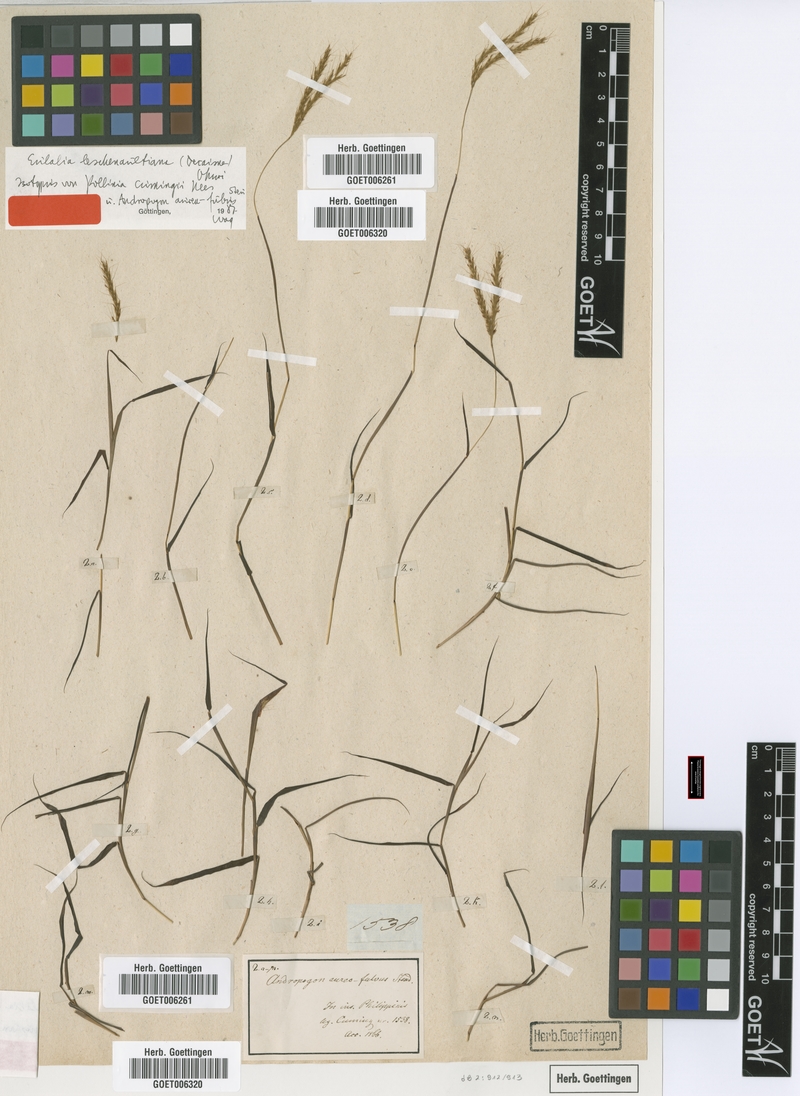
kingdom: Plantae
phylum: Tracheophyta
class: Liliopsida
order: Poales
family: Poaceae
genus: Eulalia
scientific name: Eulalia leschenaultiana
